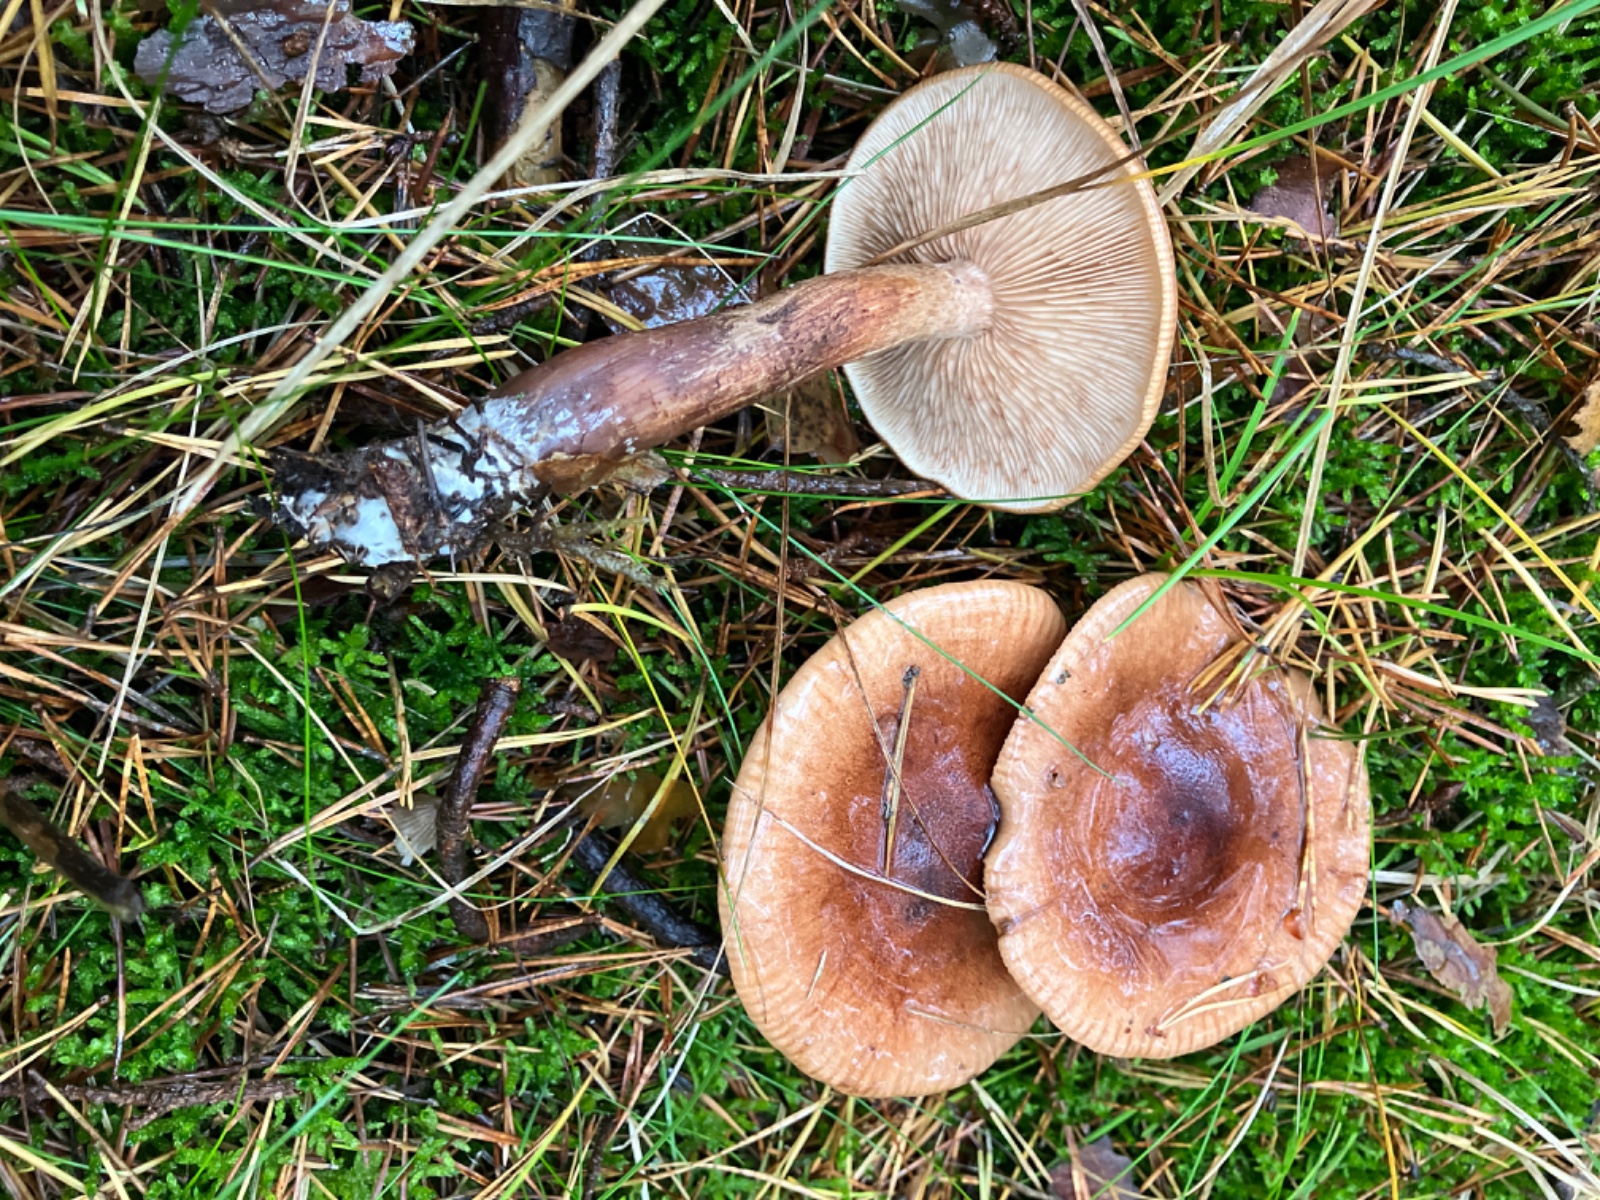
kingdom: Fungi
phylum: Basidiomycota
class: Agaricomycetes
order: Agaricales
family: Tricholomataceae
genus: Tricholoma
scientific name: Tricholoma fulvum
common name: birke-ridderhat
